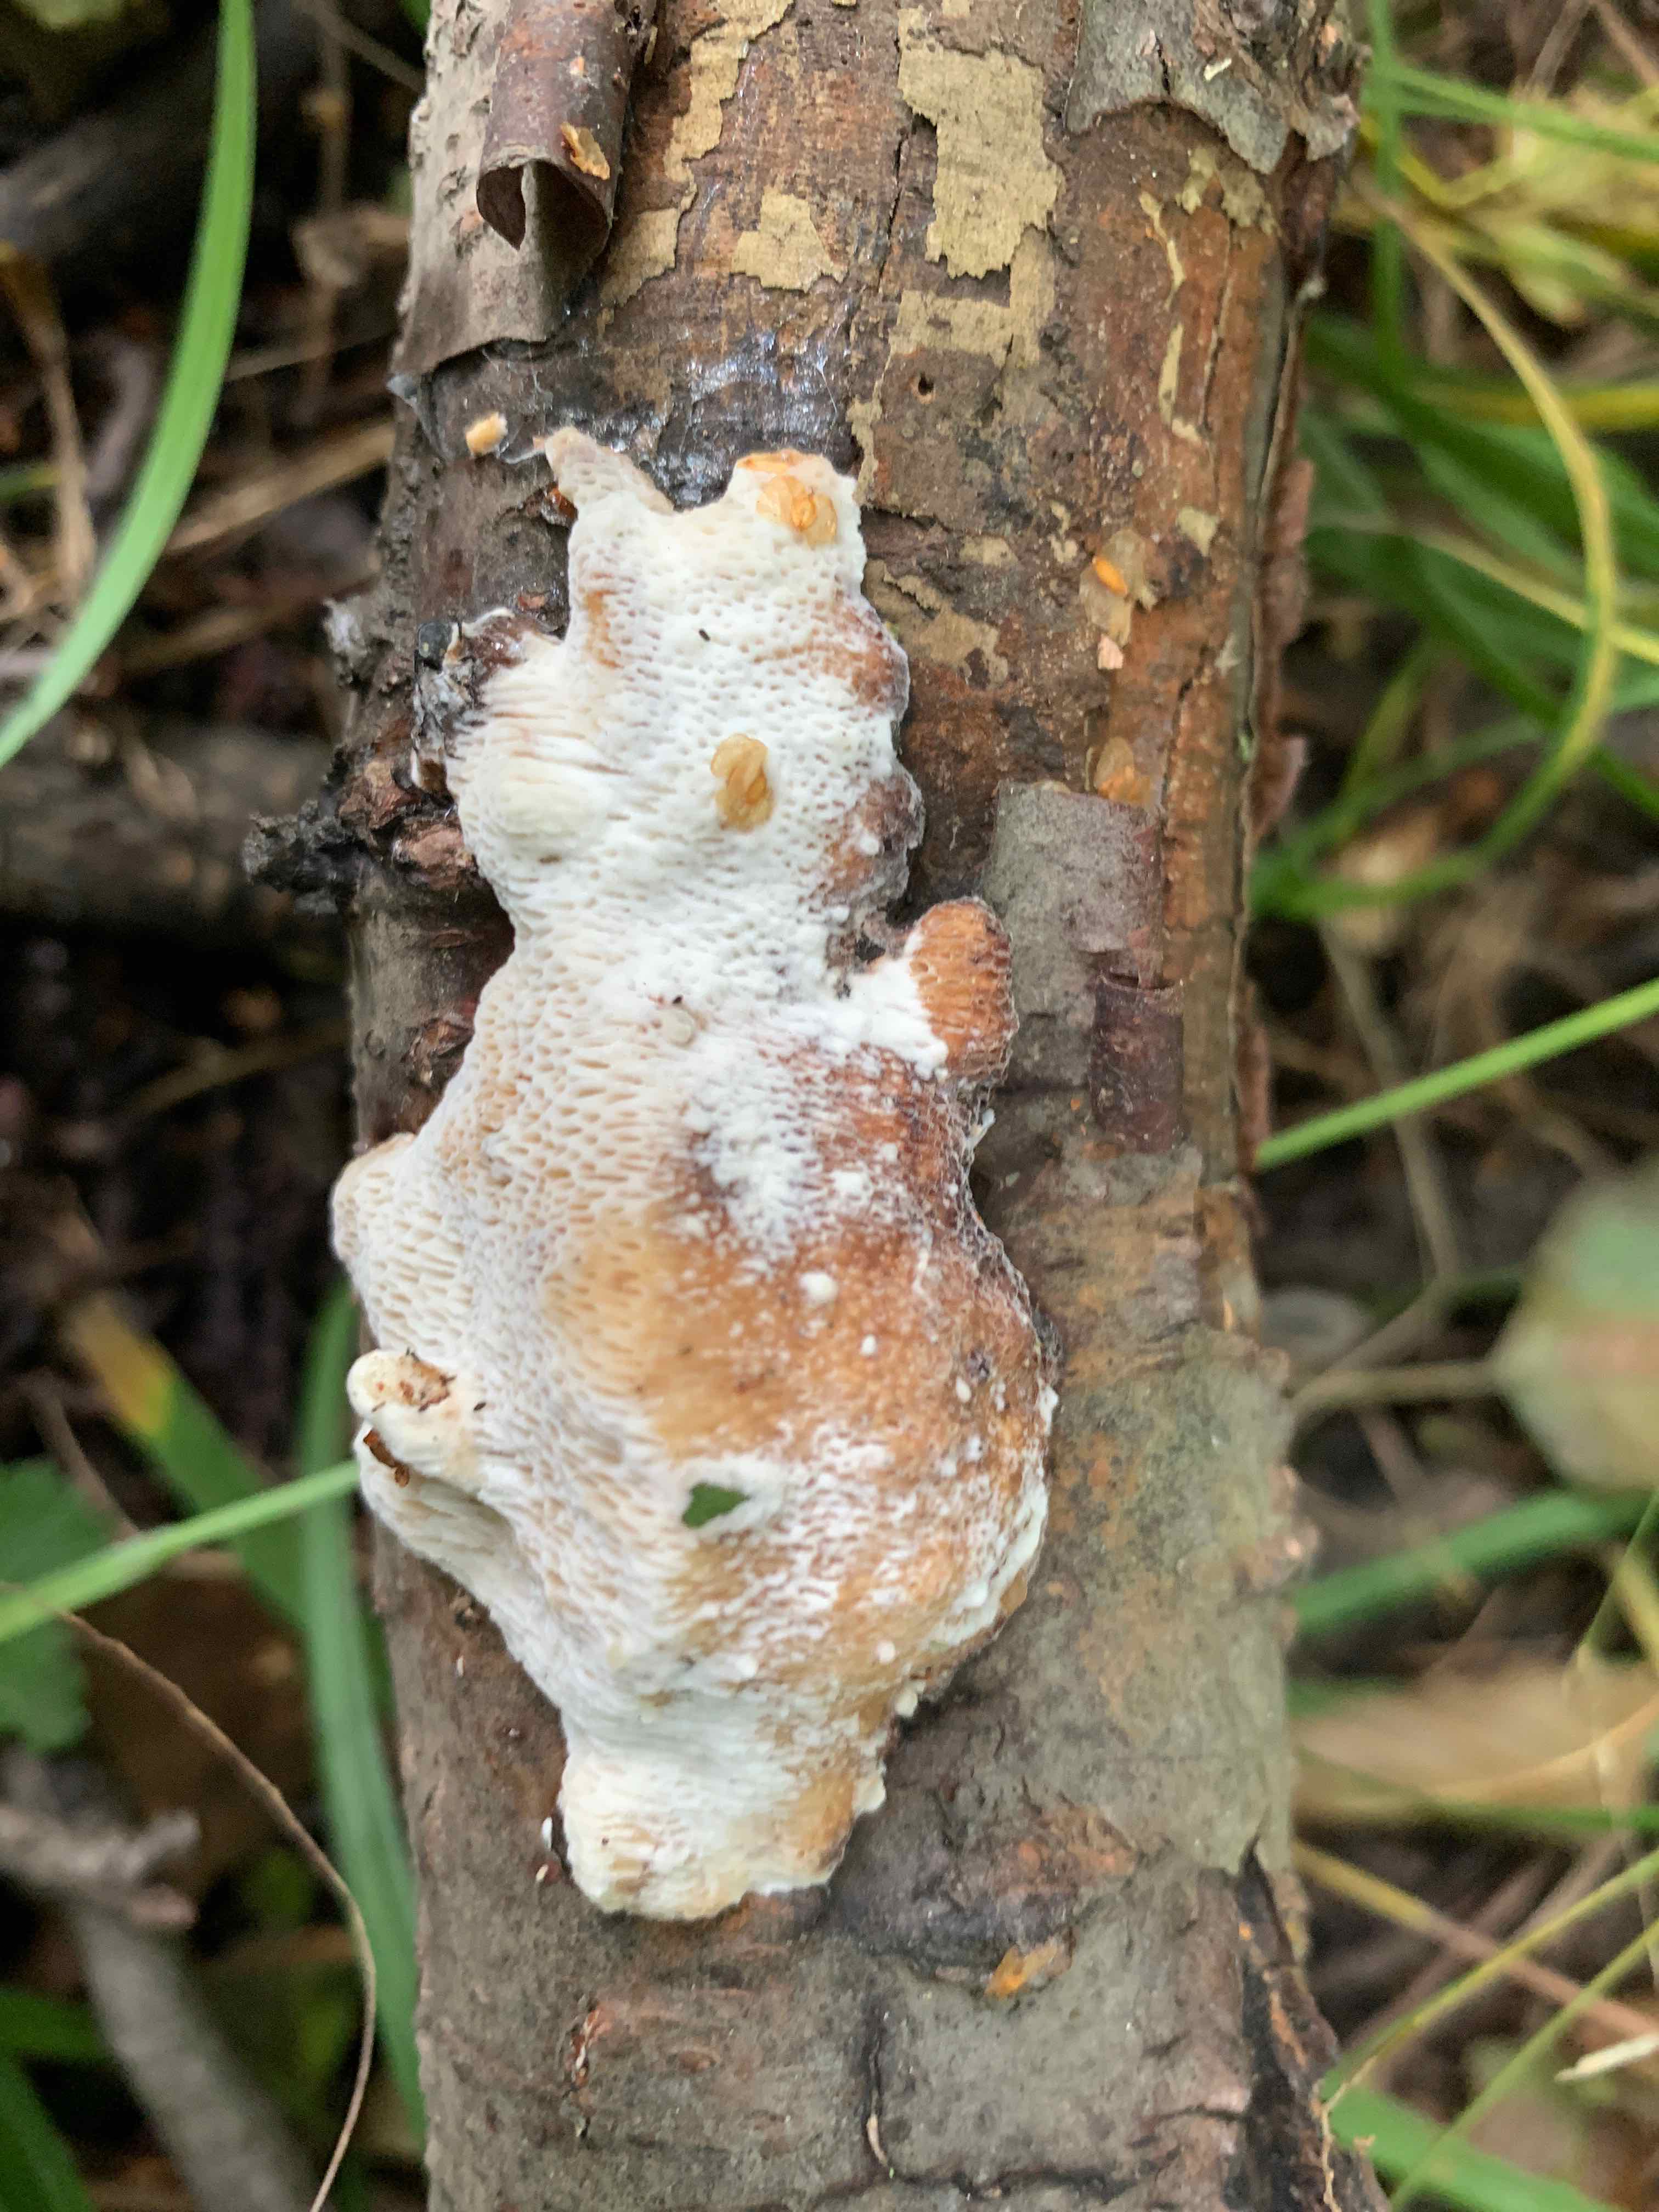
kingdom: Fungi
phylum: Basidiomycota
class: Agaricomycetes
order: Polyporales
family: Polyporaceae
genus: Szczepkamyces
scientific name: Szczepkamyces campestris
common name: hasselporesvamp
